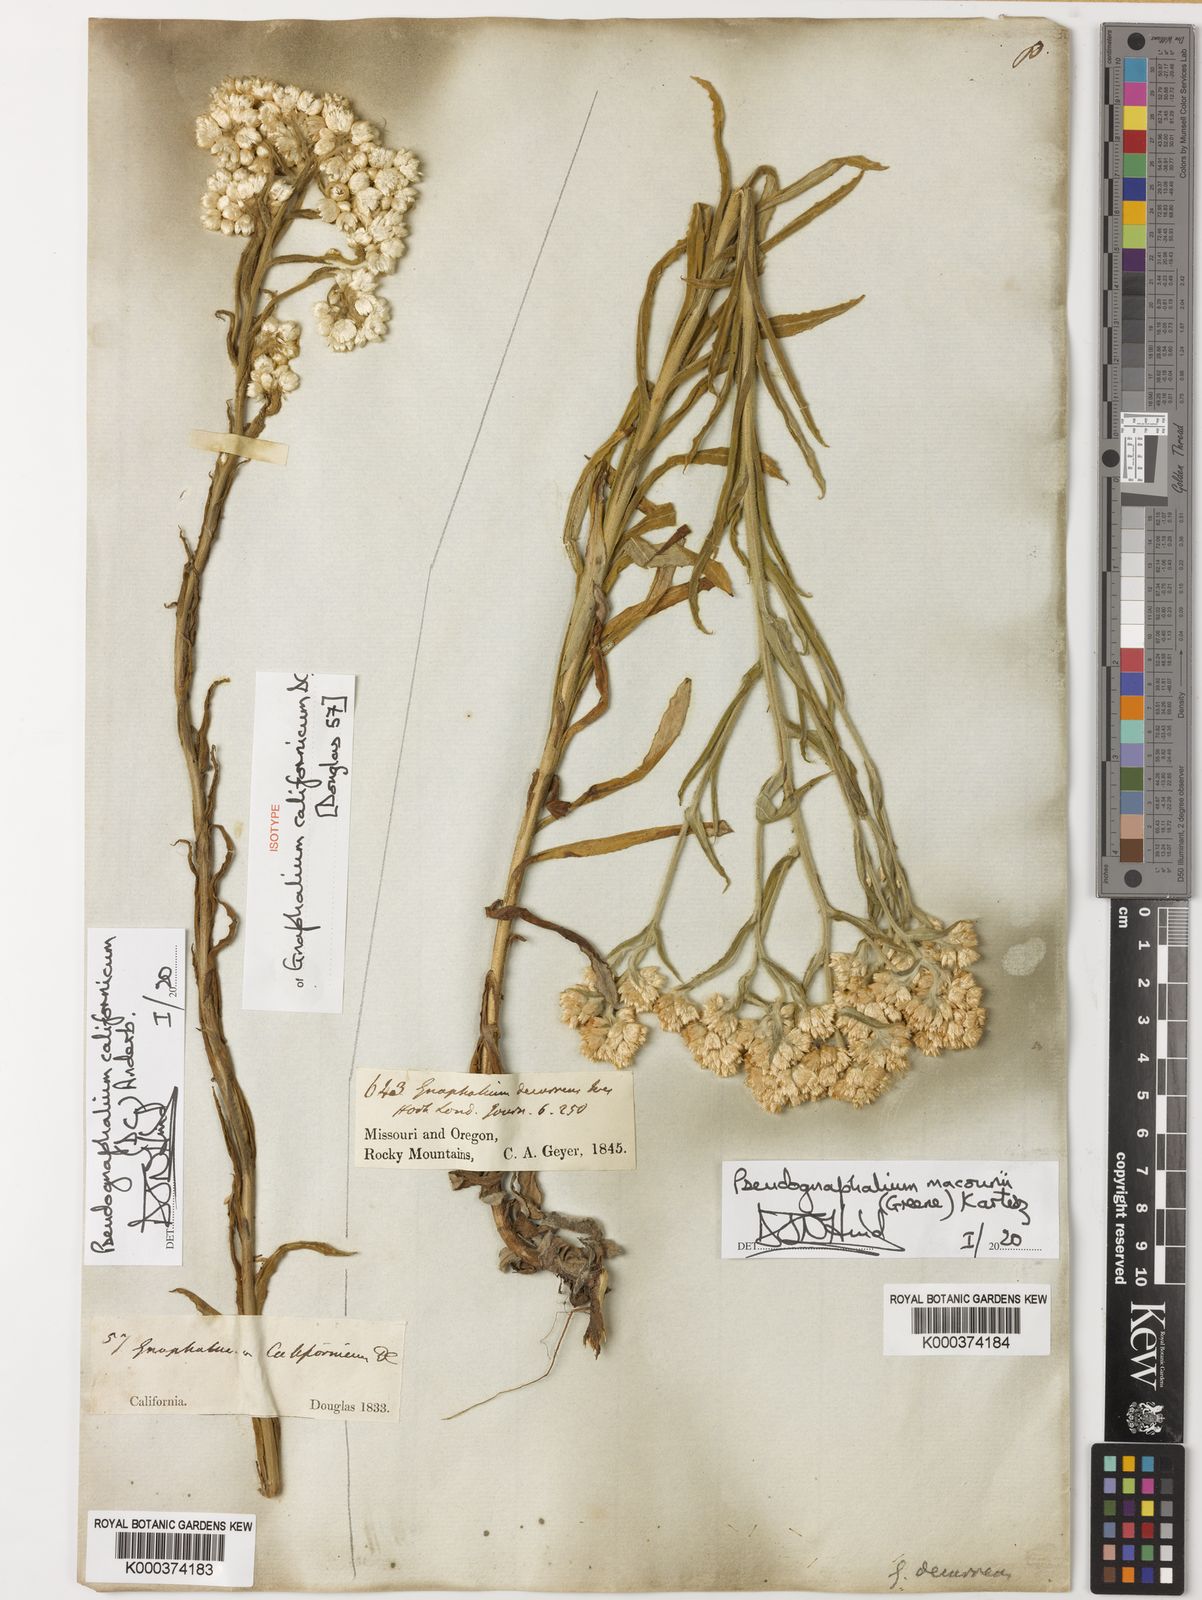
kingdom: Plantae
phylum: Tracheophyta
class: Magnoliopsida
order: Asterales
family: Asteraceae
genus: Pseudognaphalium
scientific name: Pseudognaphalium californicum
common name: California rabbit-tobacco
